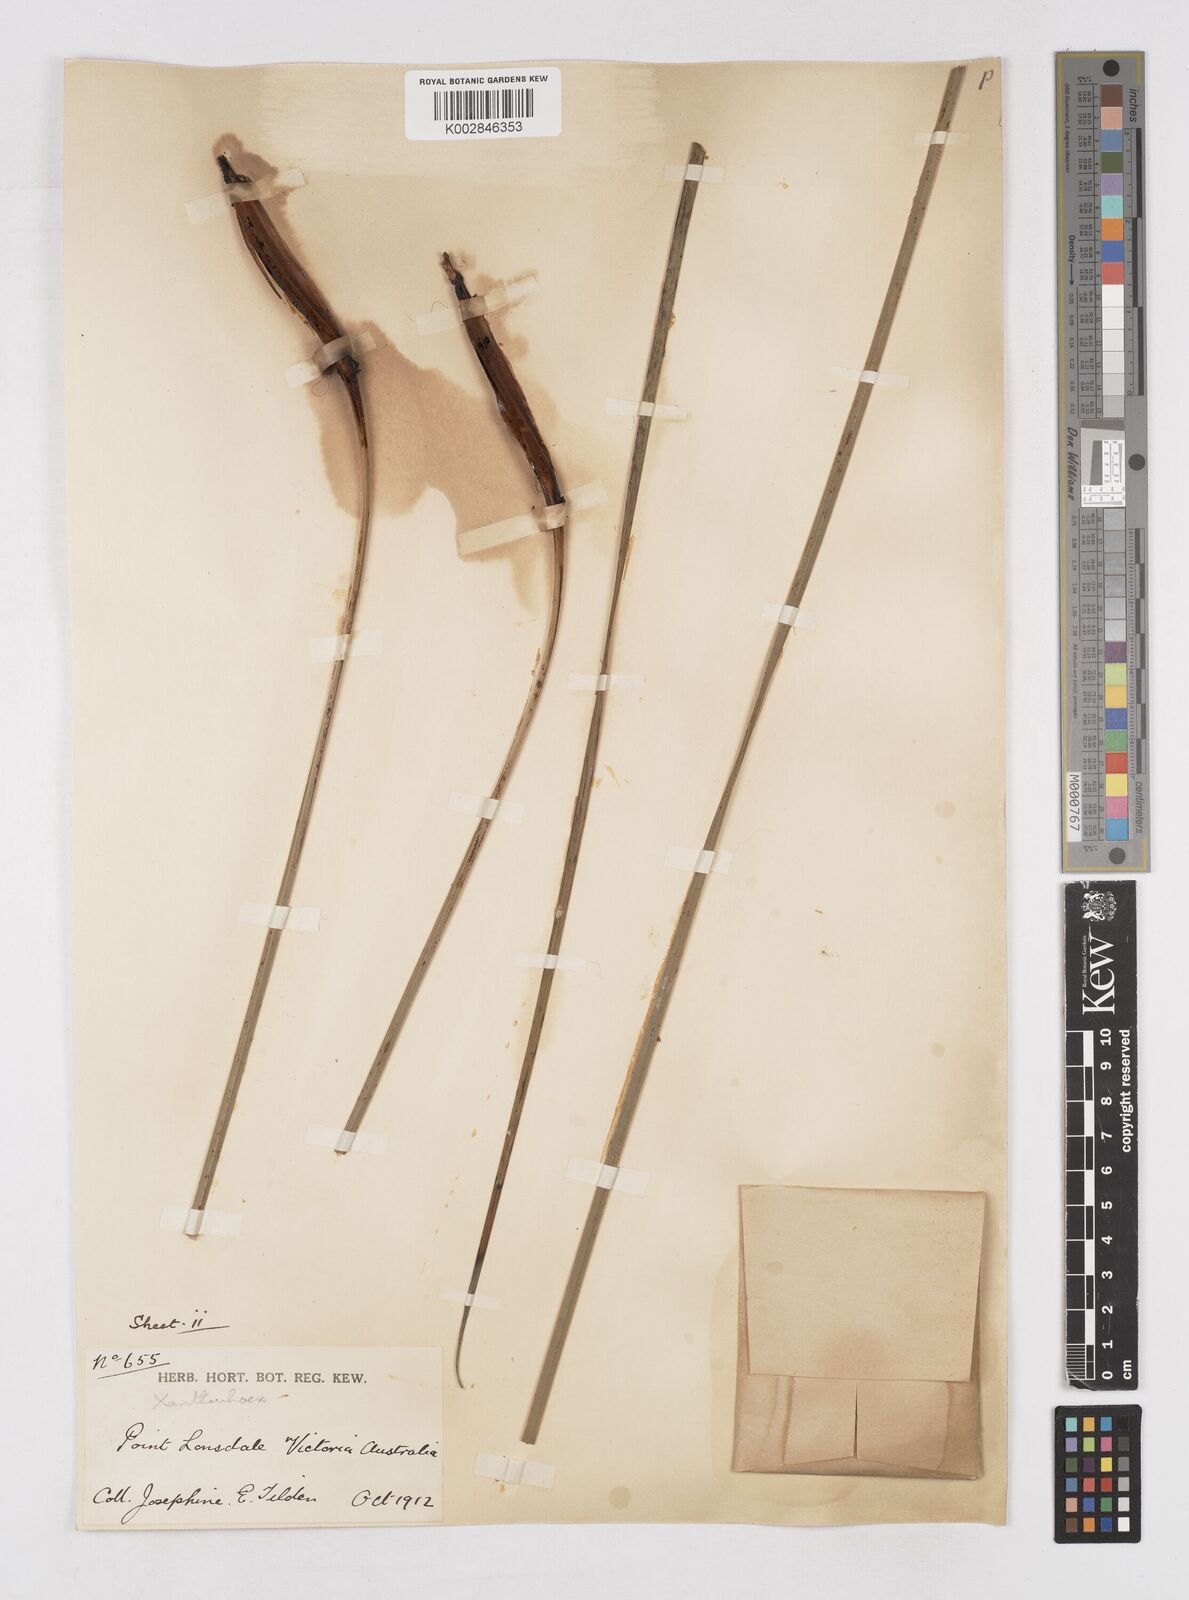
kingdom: Plantae
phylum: Tracheophyta
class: Liliopsida
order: Asparagales
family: Asphodelaceae
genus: Xanthorrhoea
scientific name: Xanthorrhoea
